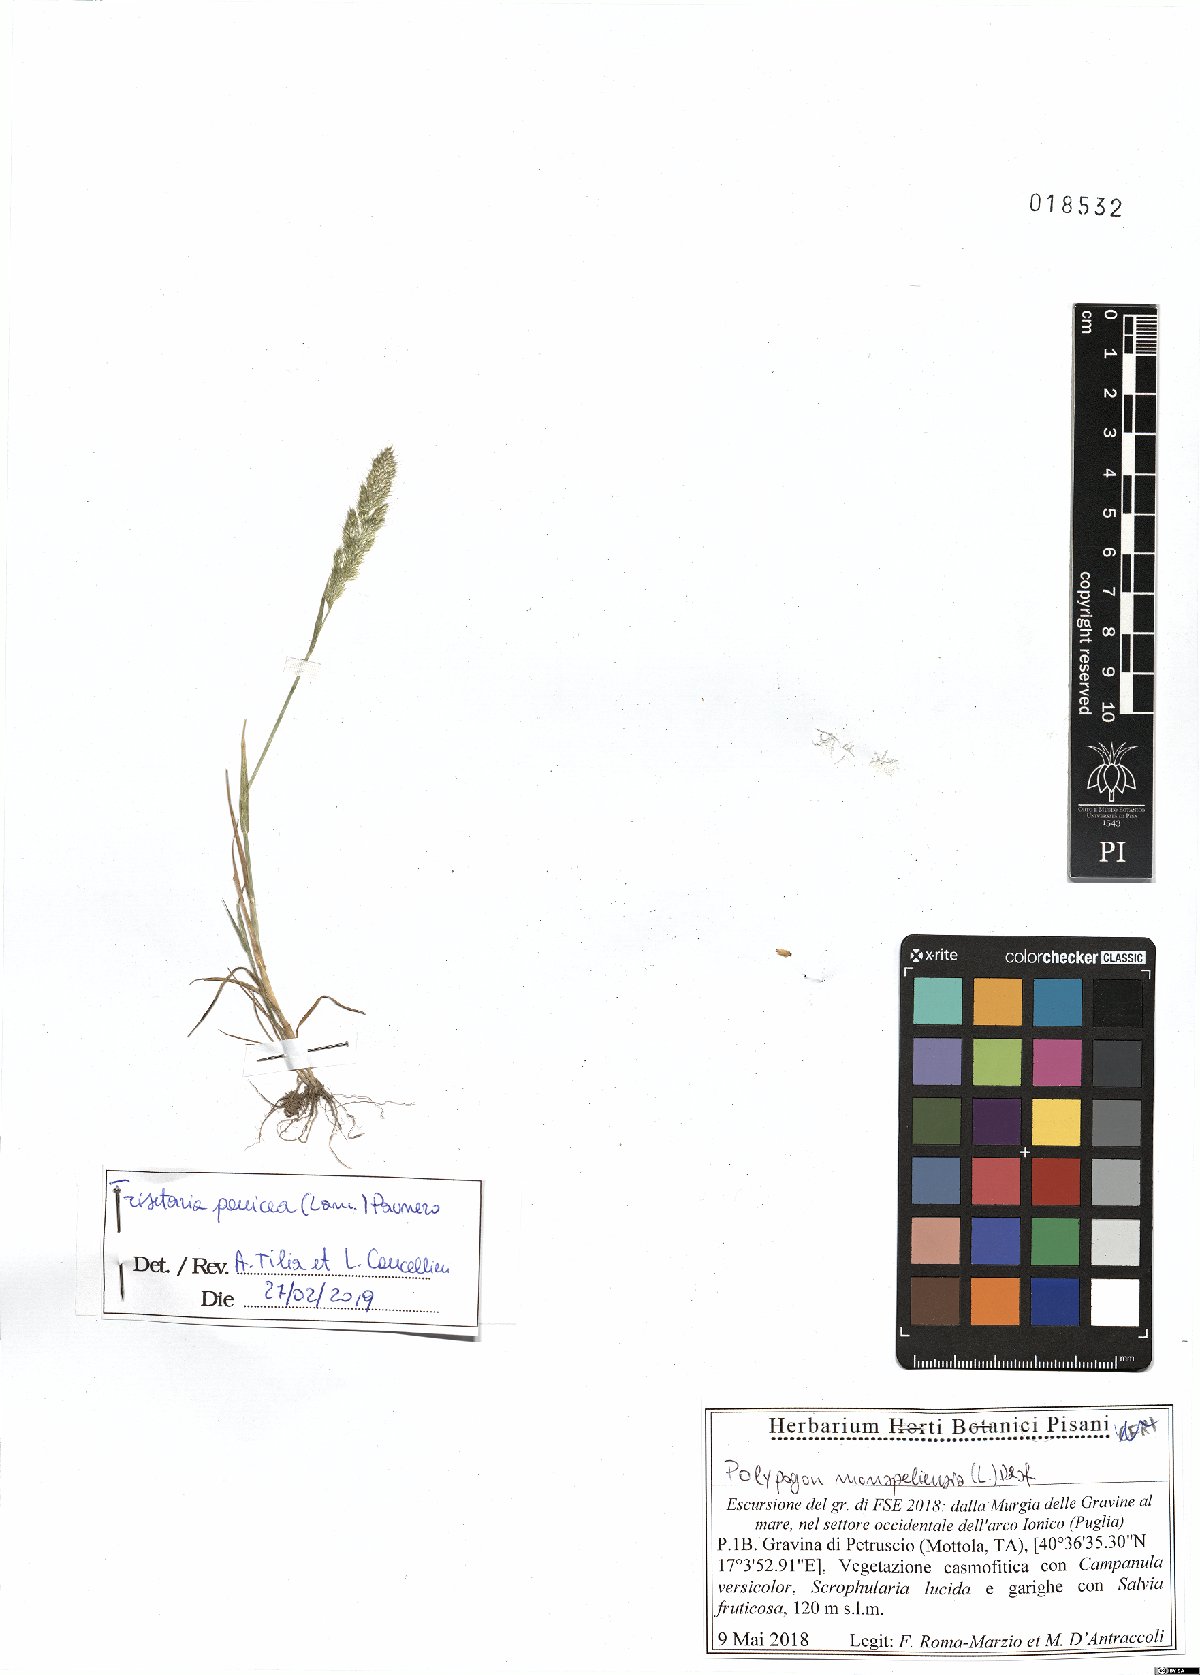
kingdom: Plantae
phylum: Tracheophyta
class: Liliopsida
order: Poales
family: Poaceae
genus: Trisetaria
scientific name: Trisetaria panicea
